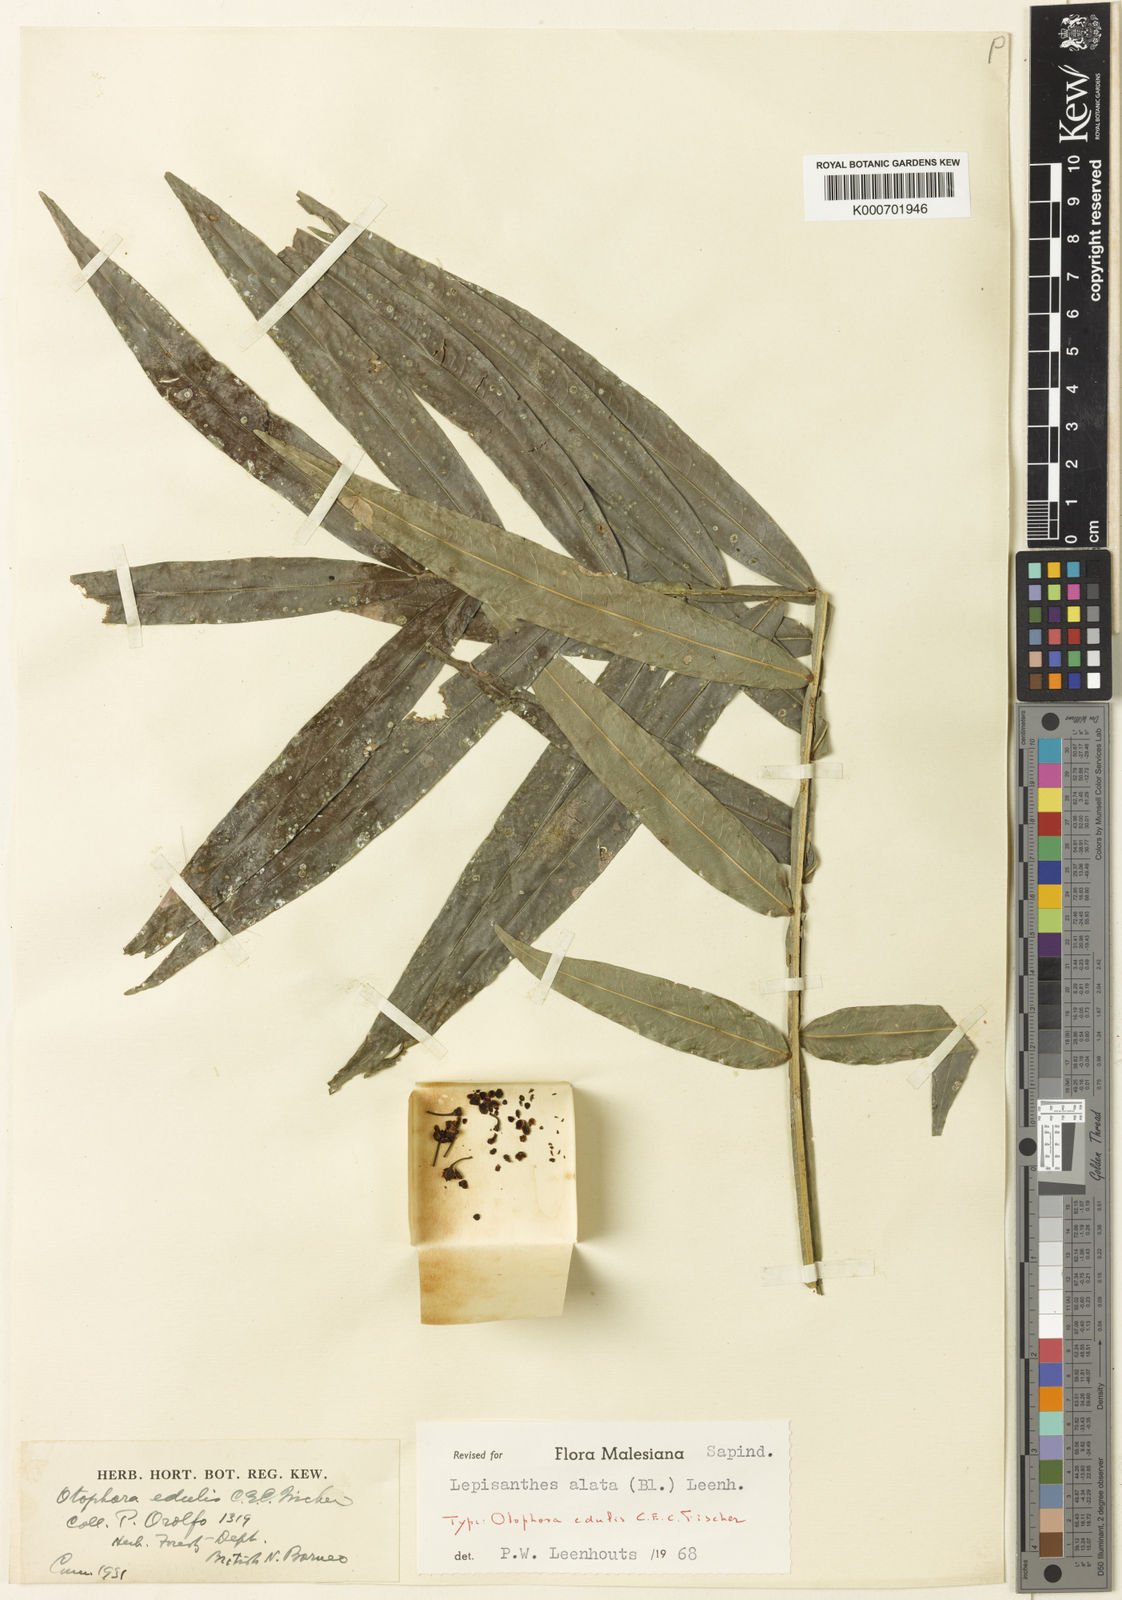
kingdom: Plantae
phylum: Tracheophyta
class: Magnoliopsida
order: Sapindales
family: Sapindaceae
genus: Lepisanthes
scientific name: Lepisanthes alata
